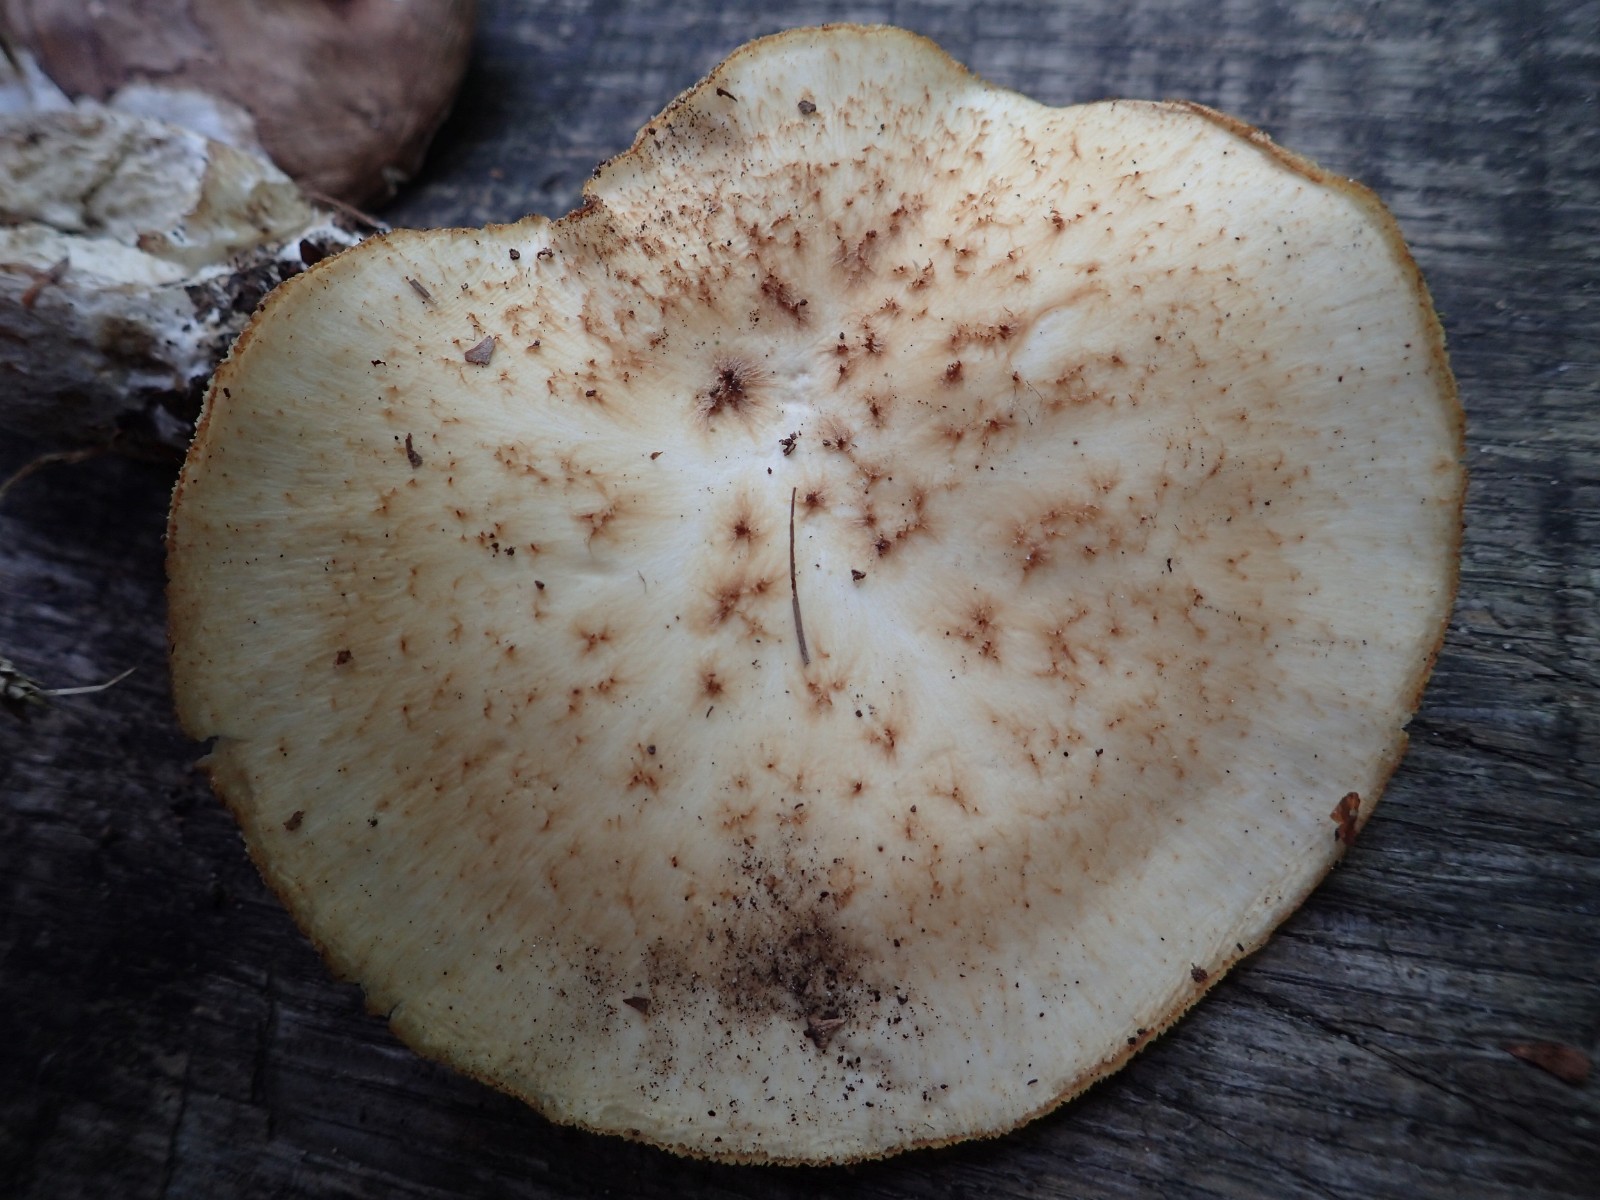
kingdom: Fungi
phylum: Basidiomycota
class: Agaricomycetes
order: Polyporales
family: Polyporaceae
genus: Polyporus
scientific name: Polyporus tuberaster
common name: knoldet stilkporesvamp
